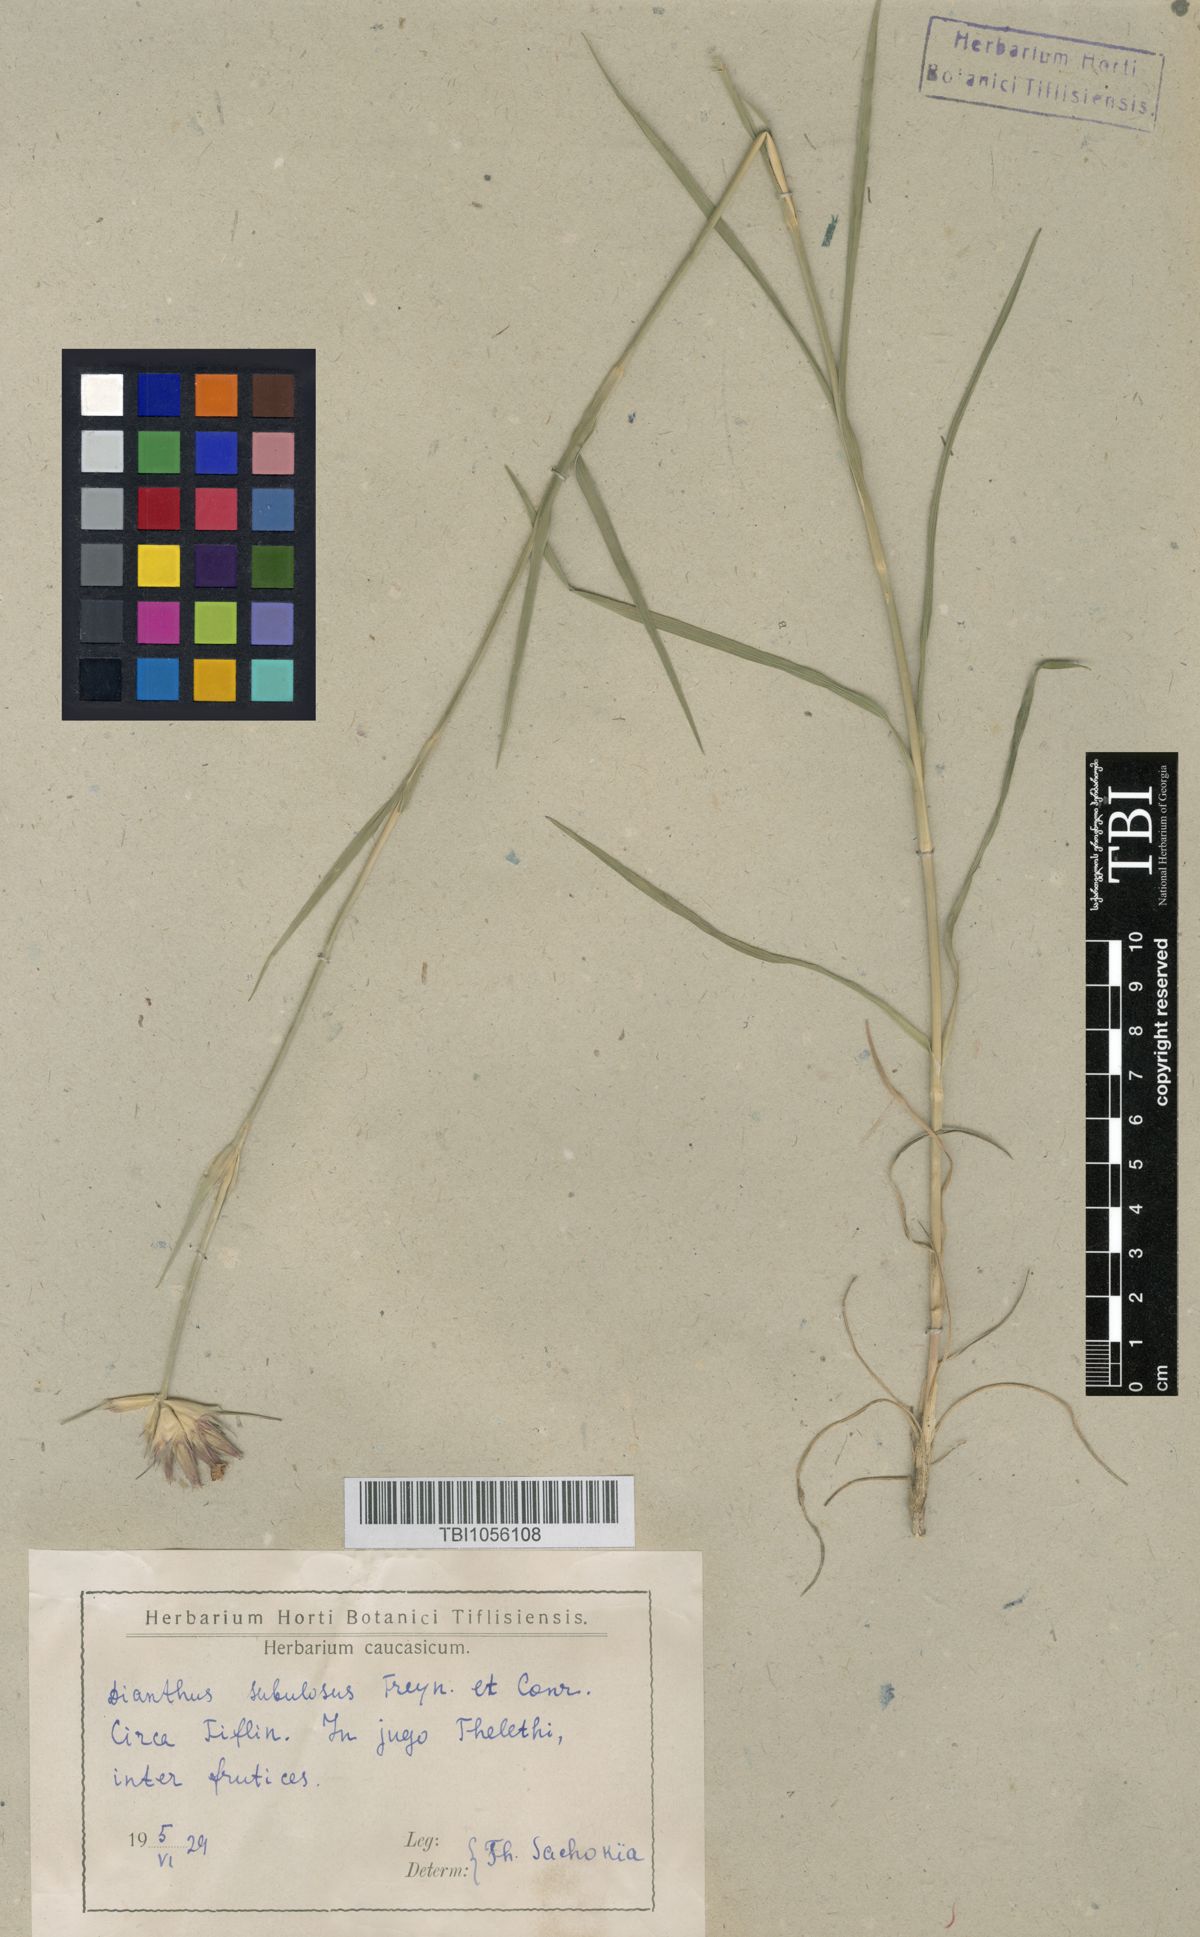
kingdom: Plantae
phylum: Tracheophyta
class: Magnoliopsida
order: Caryophyllales
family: Caryophyllaceae
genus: Dianthus
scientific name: Dianthus subulosus
